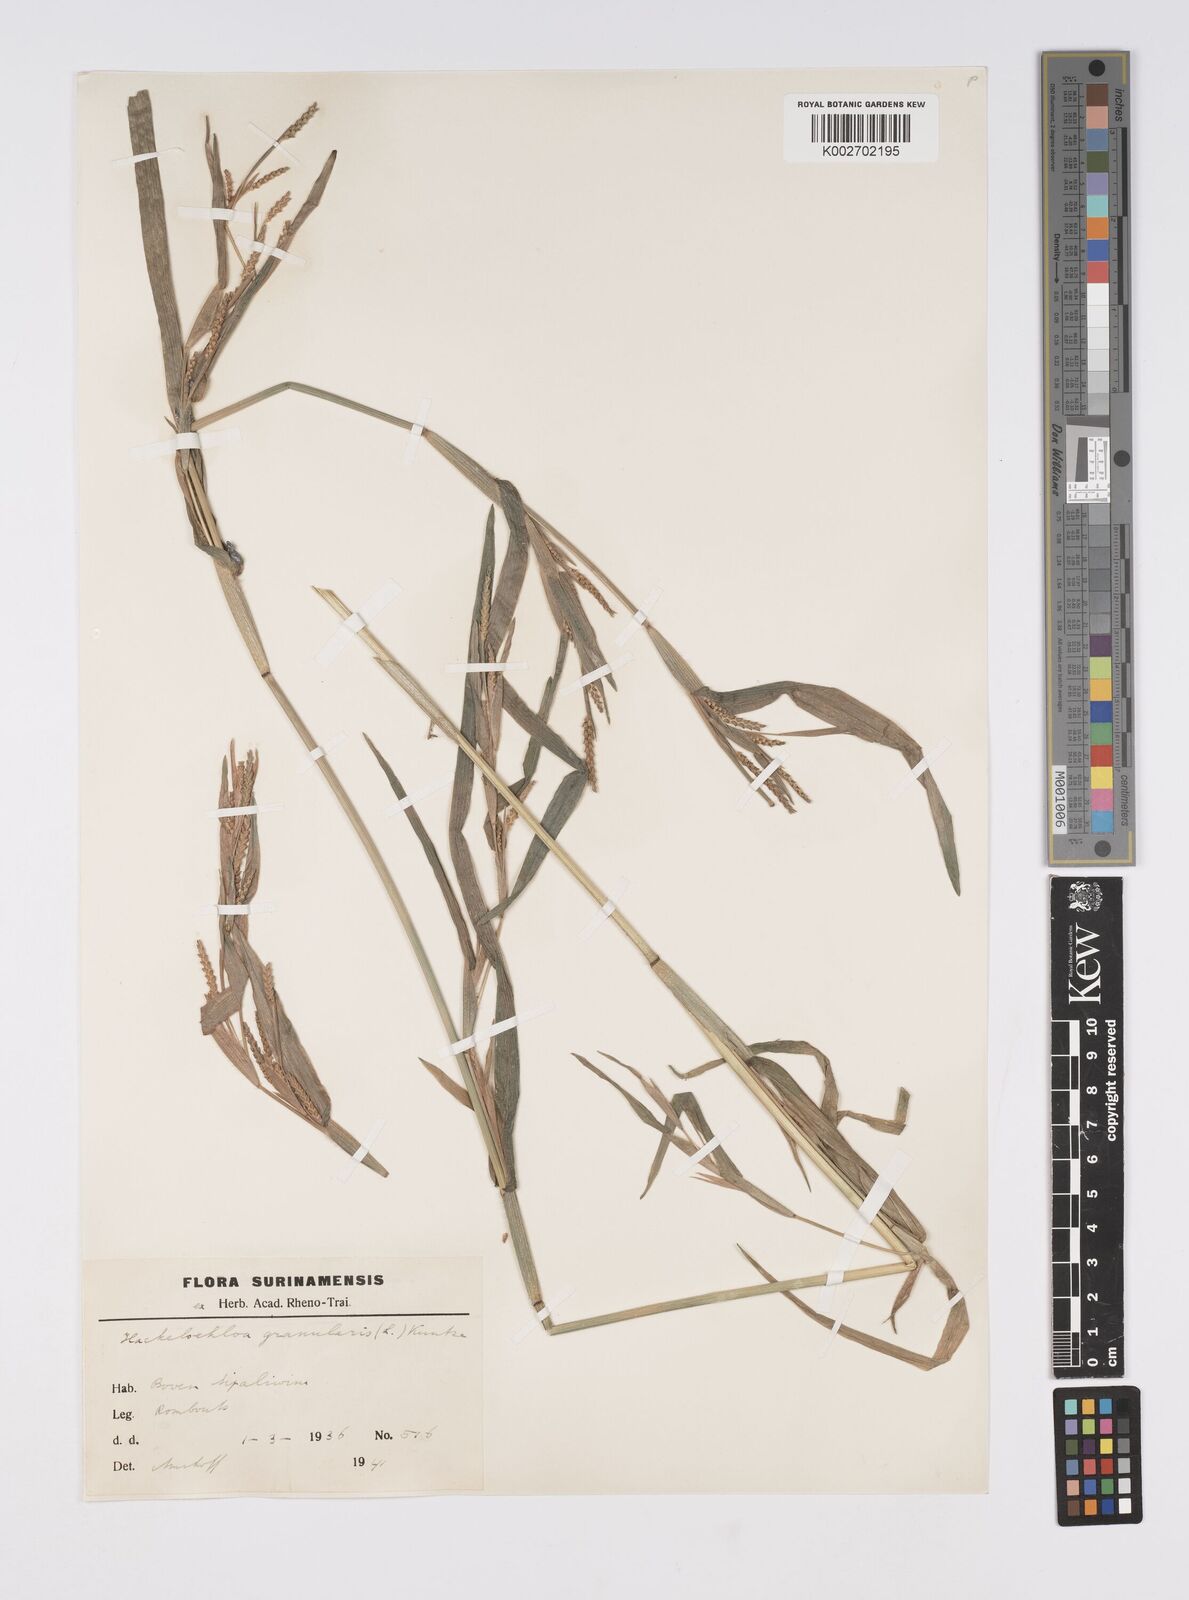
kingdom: Plantae
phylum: Tracheophyta
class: Liliopsida
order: Poales
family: Poaceae
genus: Hackelochloa
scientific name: Hackelochloa granularis
